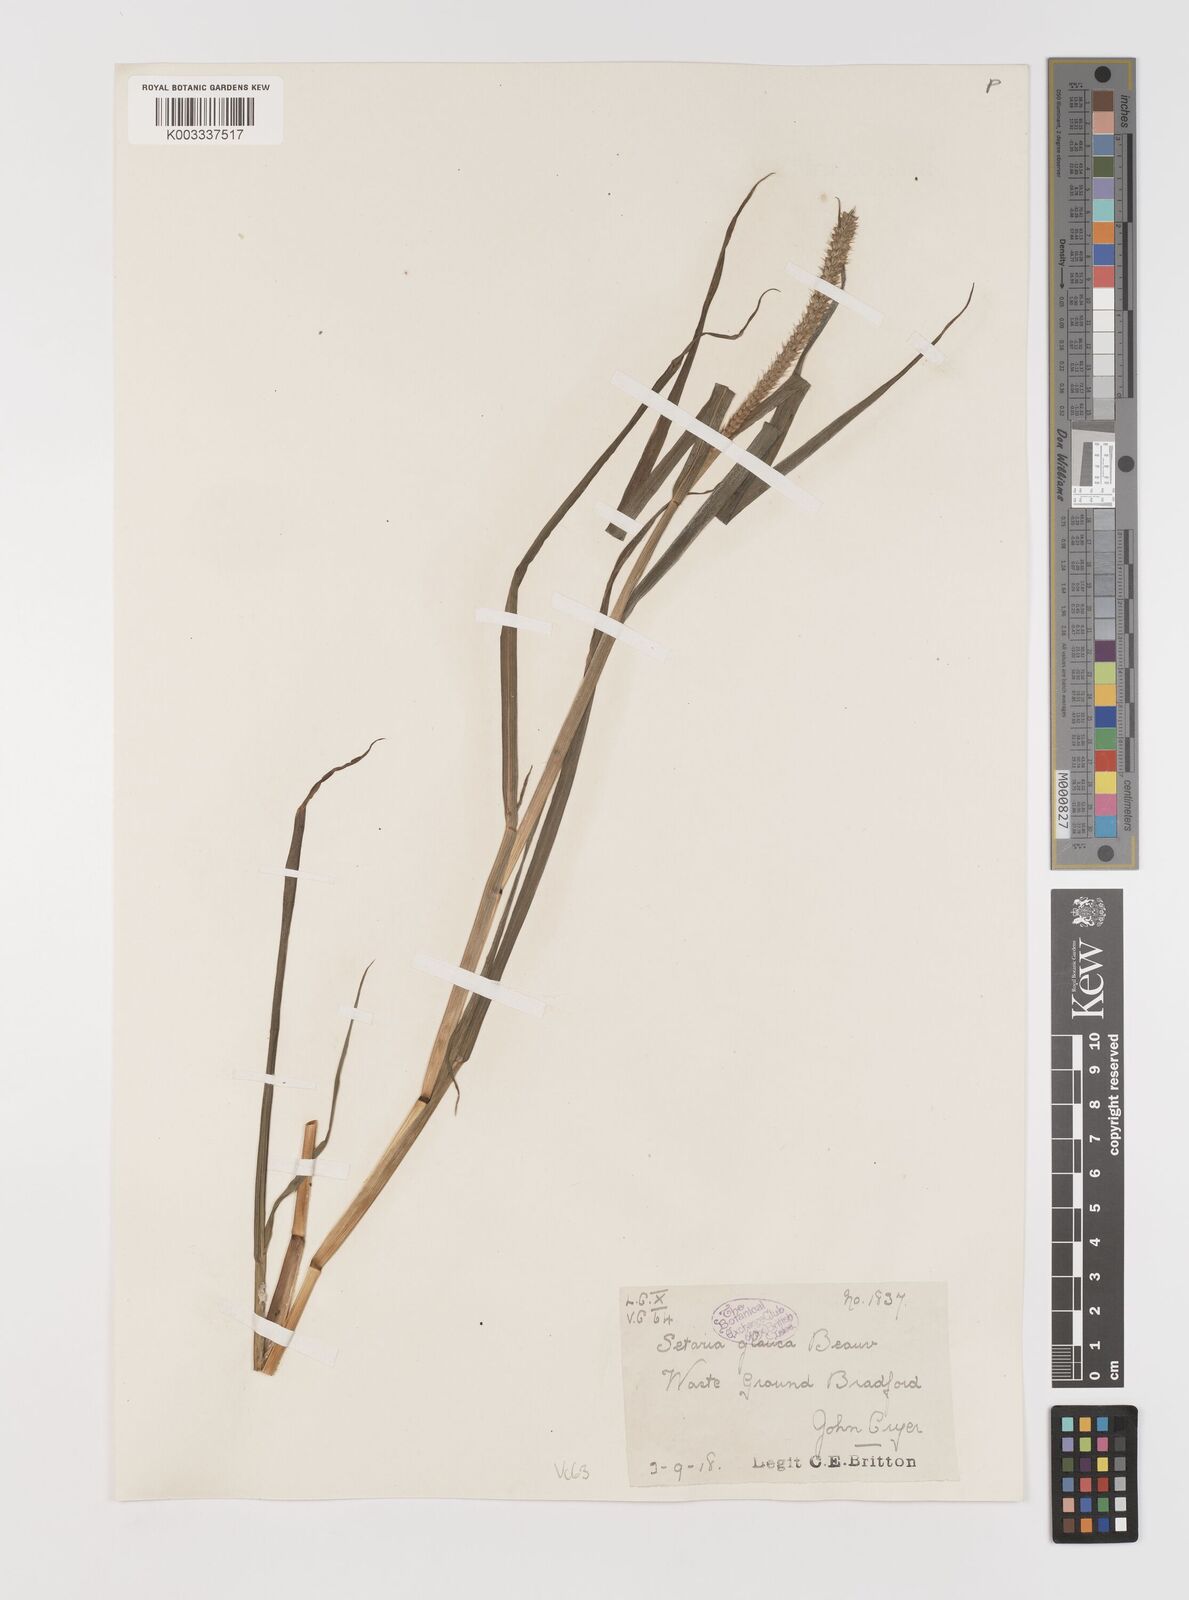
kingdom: Plantae
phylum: Tracheophyta
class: Liliopsida
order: Poales
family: Poaceae
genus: Setaria
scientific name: Setaria pumila
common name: Yellow bristle-grass
